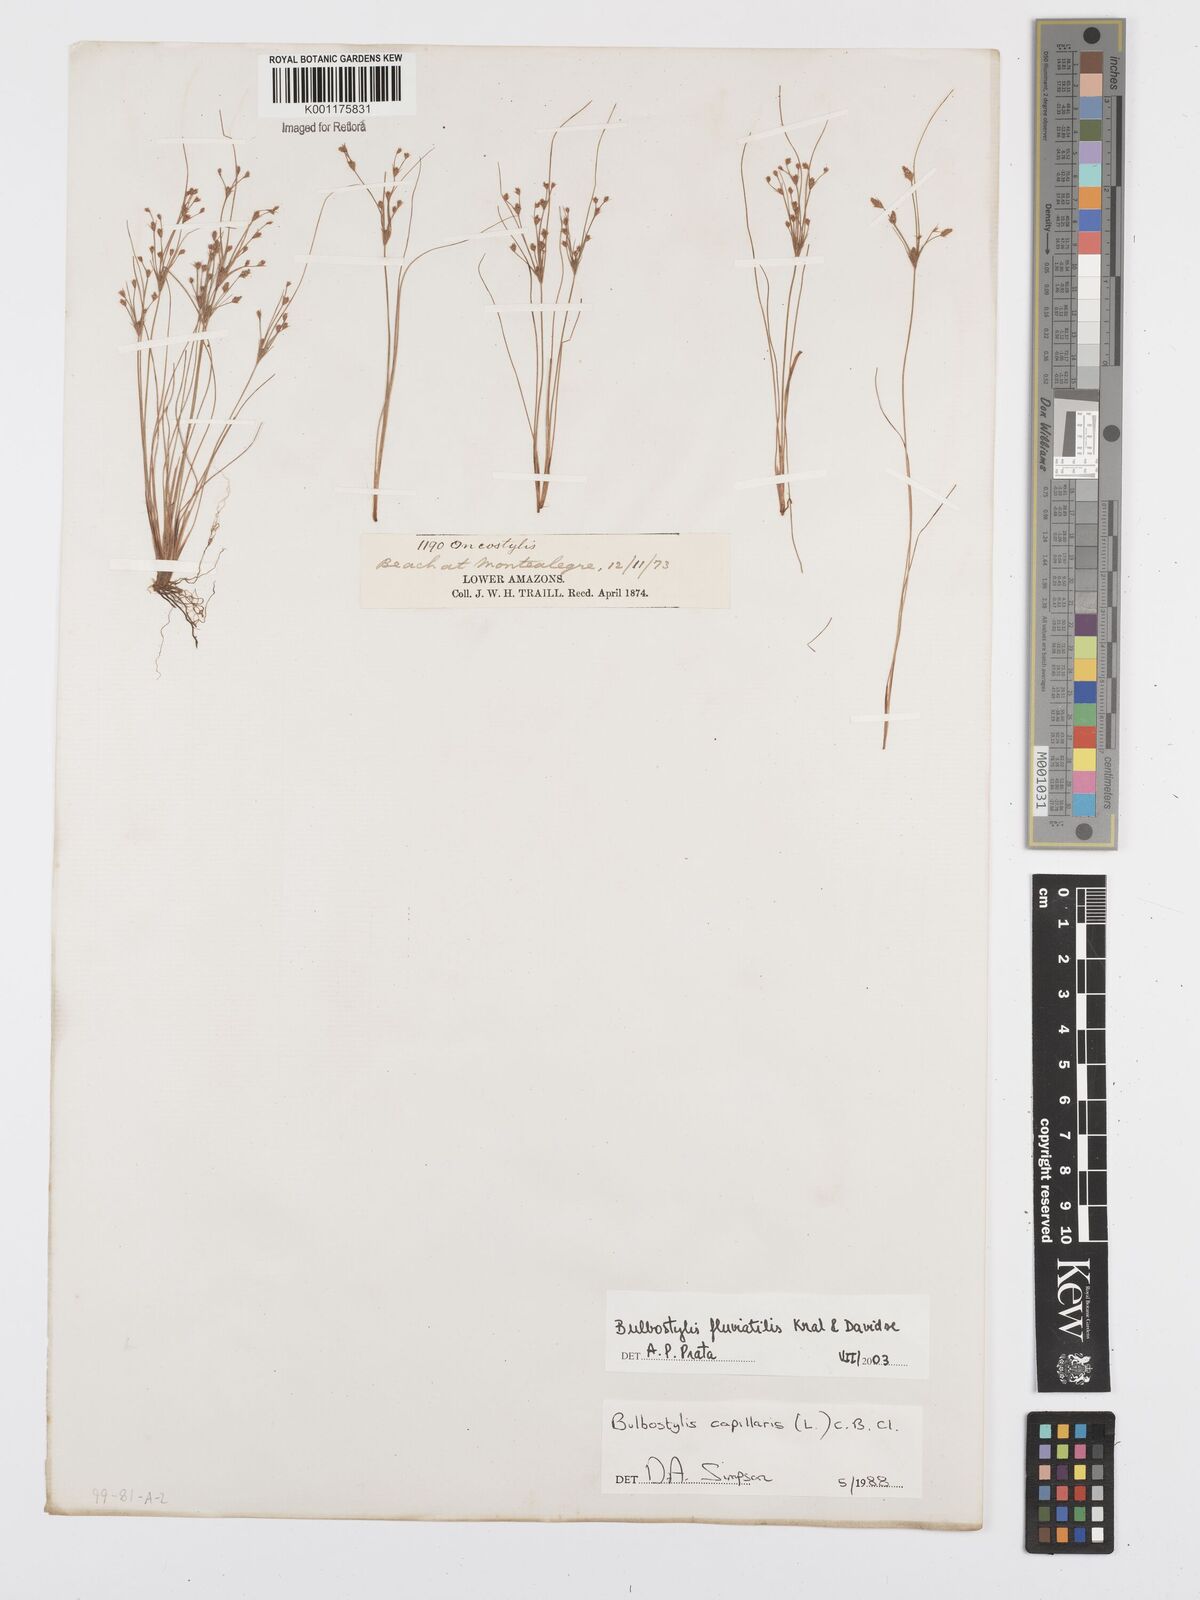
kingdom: Plantae
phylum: Tracheophyta
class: Liliopsida
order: Poales
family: Cyperaceae
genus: Bulbostylis
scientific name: Bulbostylis fluviatilis
